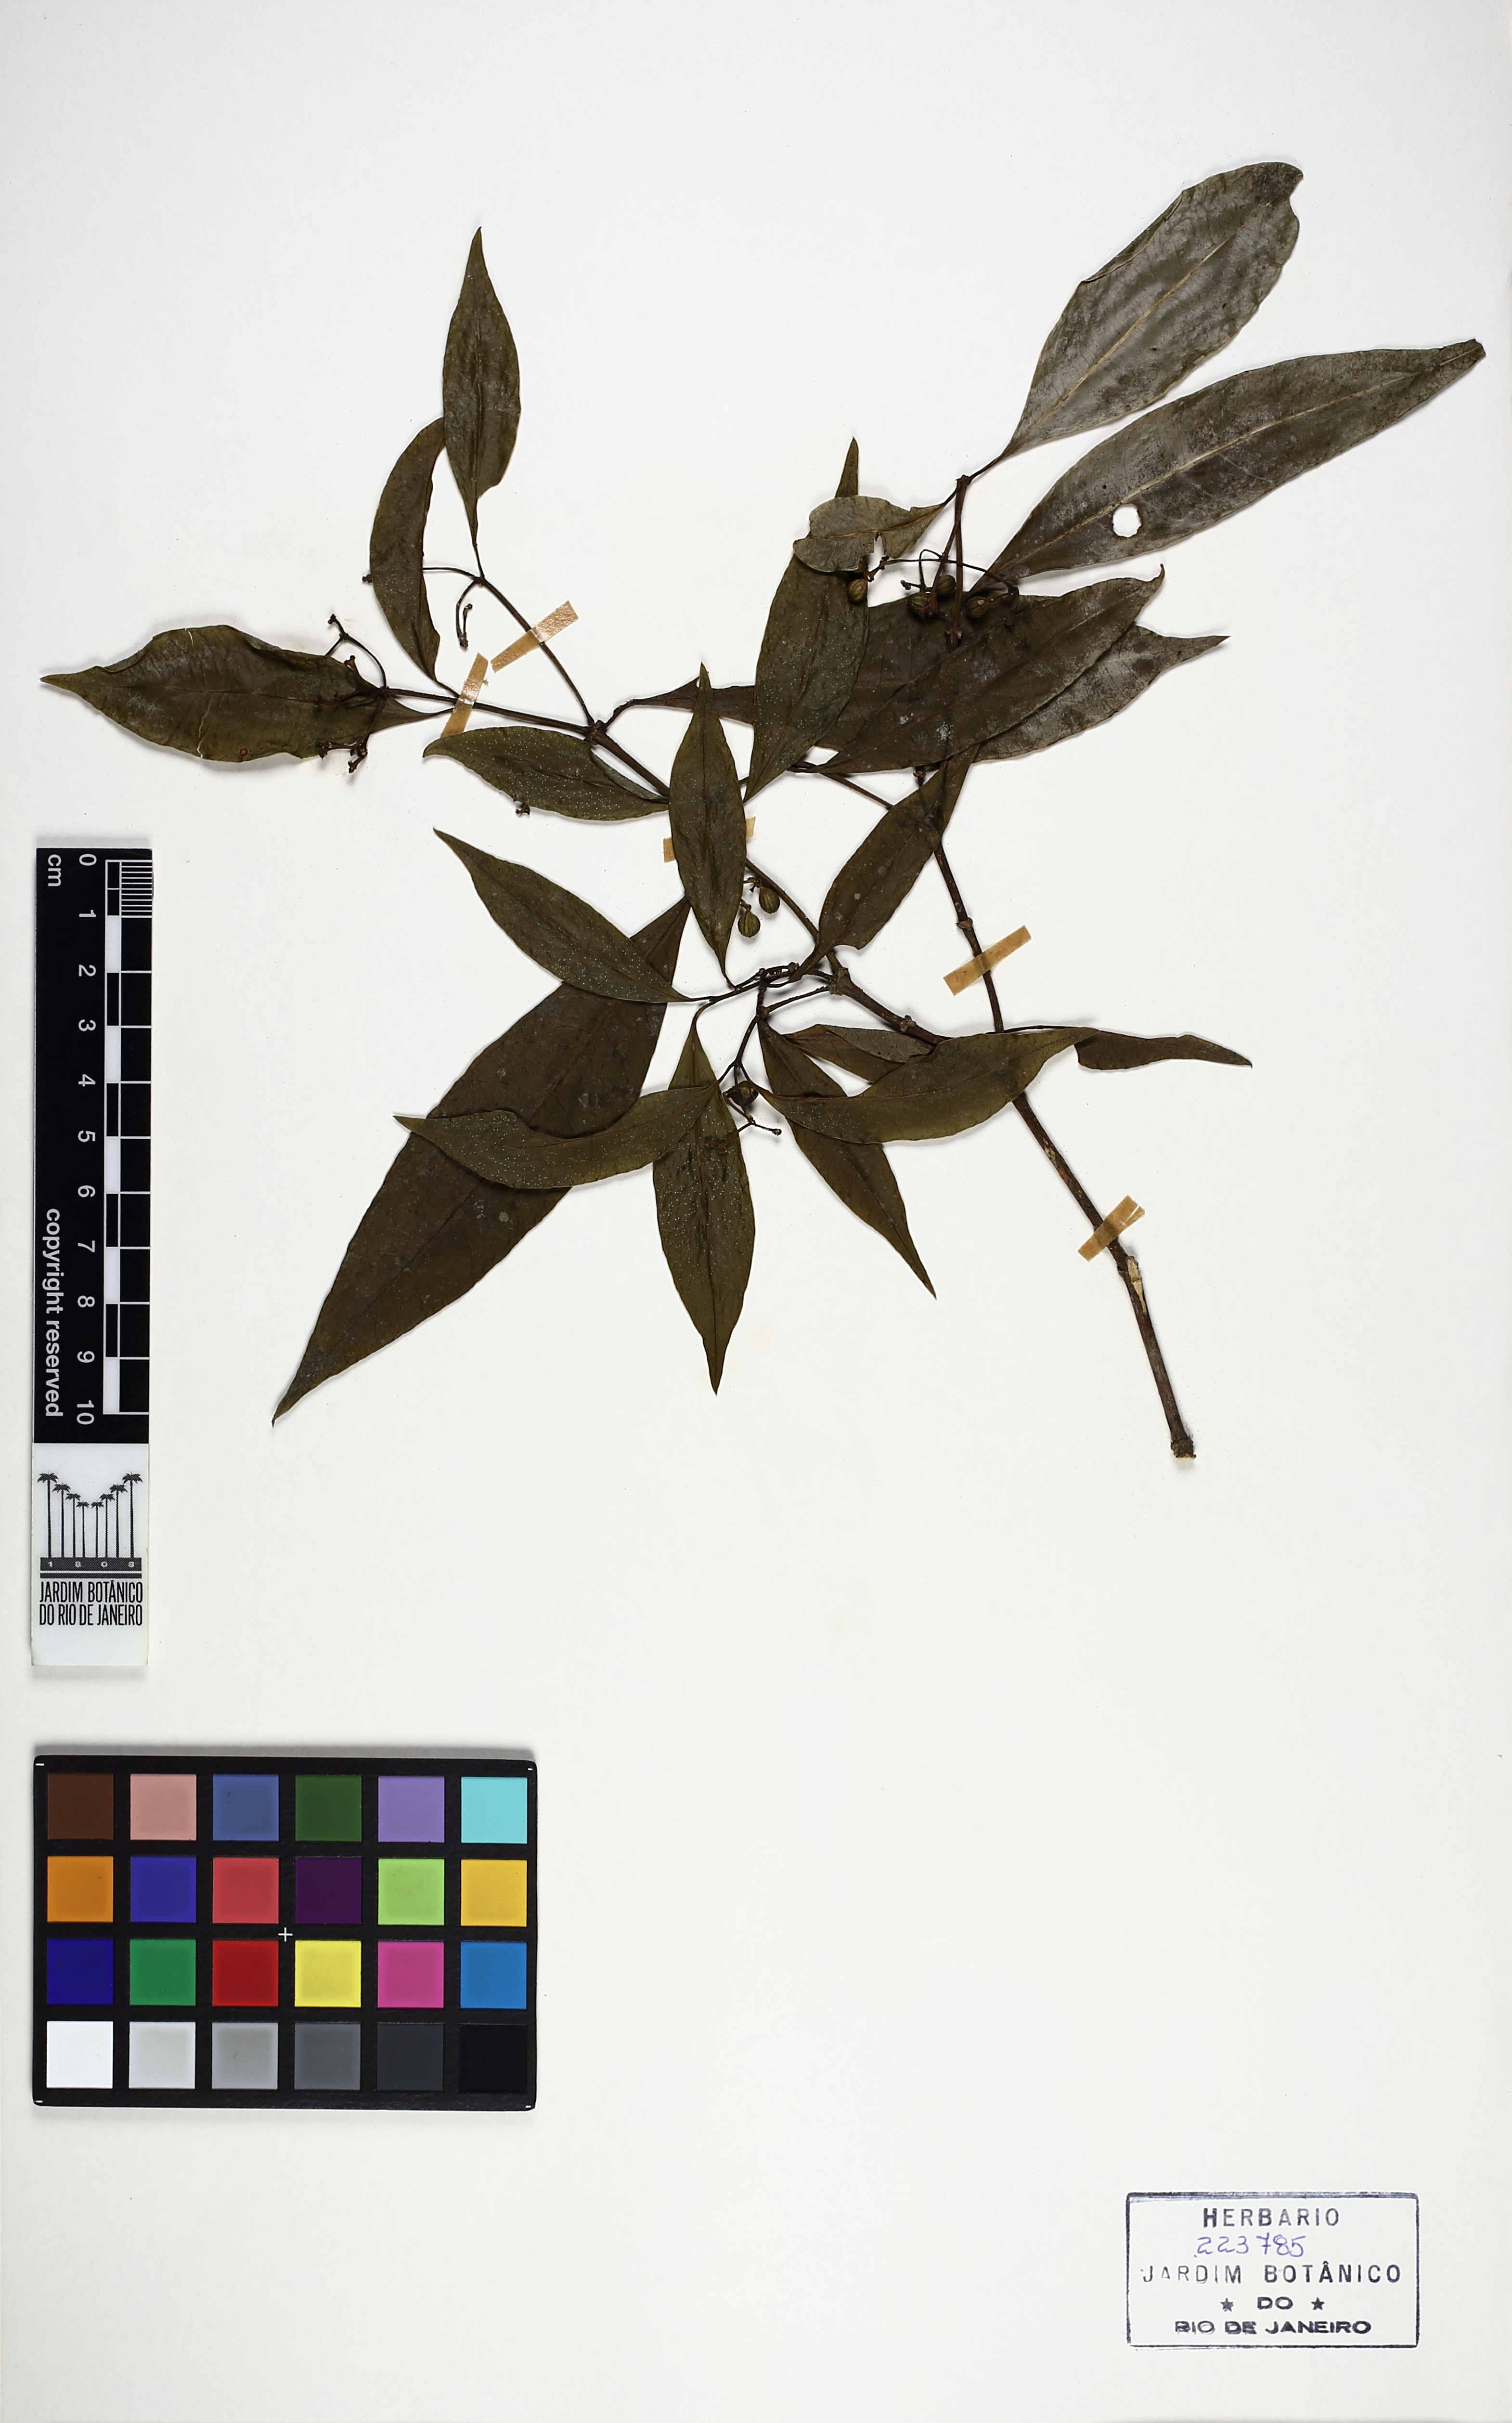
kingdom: Plantae
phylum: Tracheophyta
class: Magnoliopsida
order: Gentianales
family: Rubiaceae
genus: Eumachia
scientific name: Eumachia astrellantha
